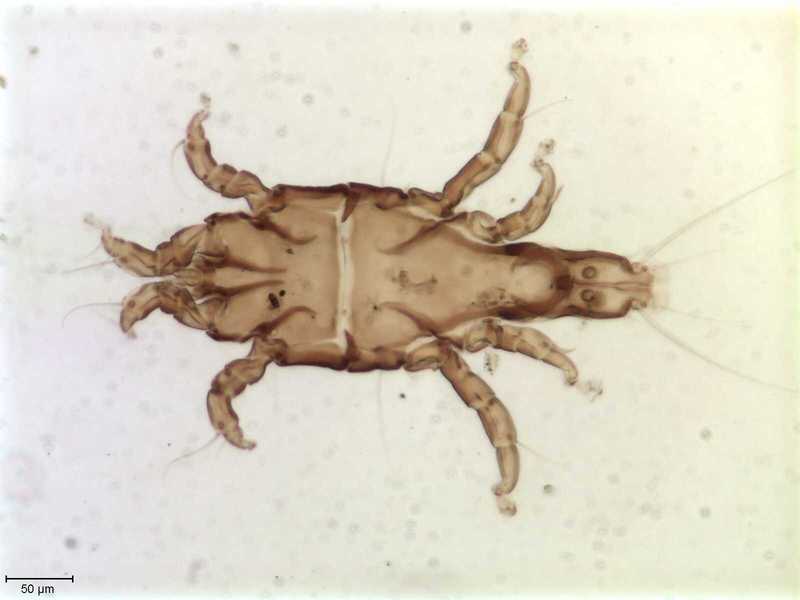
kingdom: Animalia
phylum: Arthropoda
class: Arachnida
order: Sarcoptiformes
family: Trouessartiidae
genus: Bicentralges
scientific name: Bicentralges
